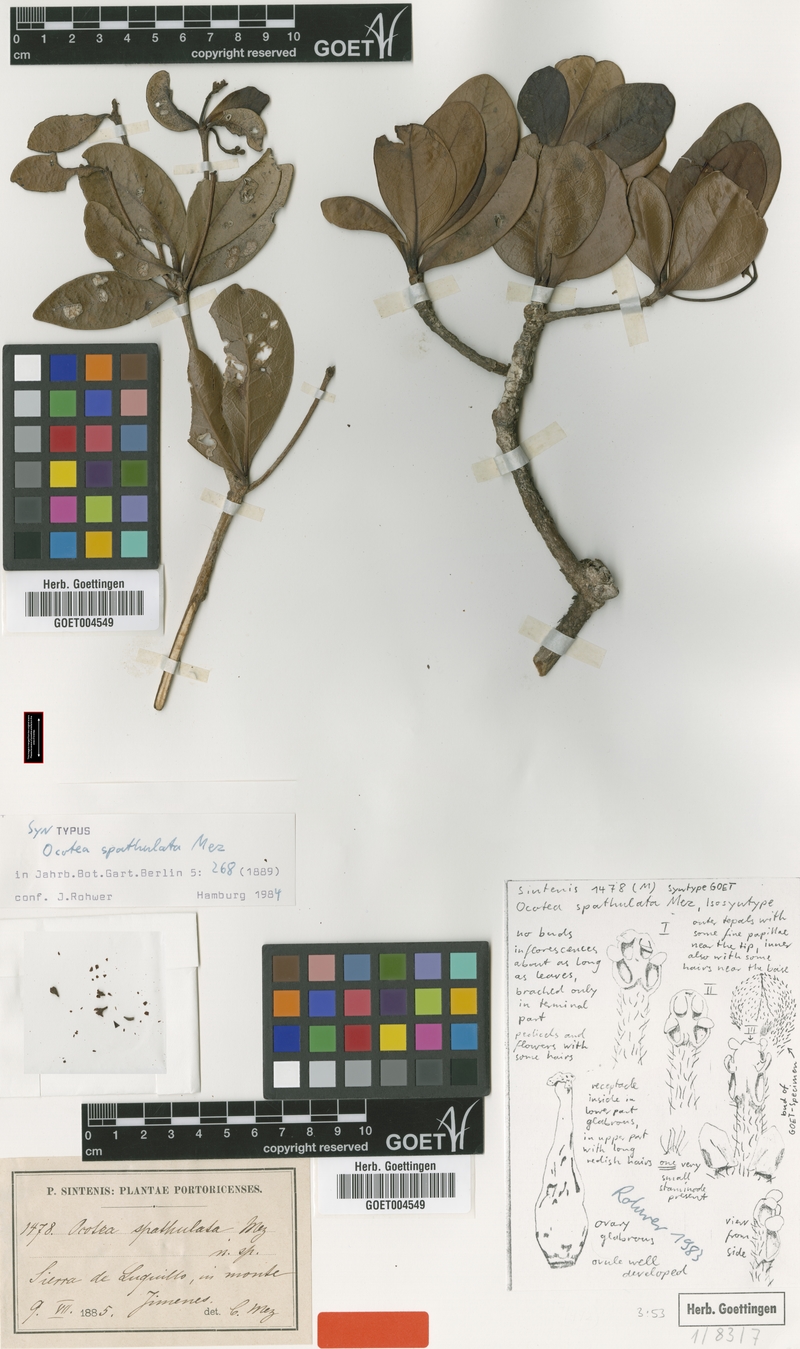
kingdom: Plantae
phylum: Tracheophyta
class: Magnoliopsida
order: Laurales
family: Lauraceae
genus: Ocotea
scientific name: Ocotea spathulata
